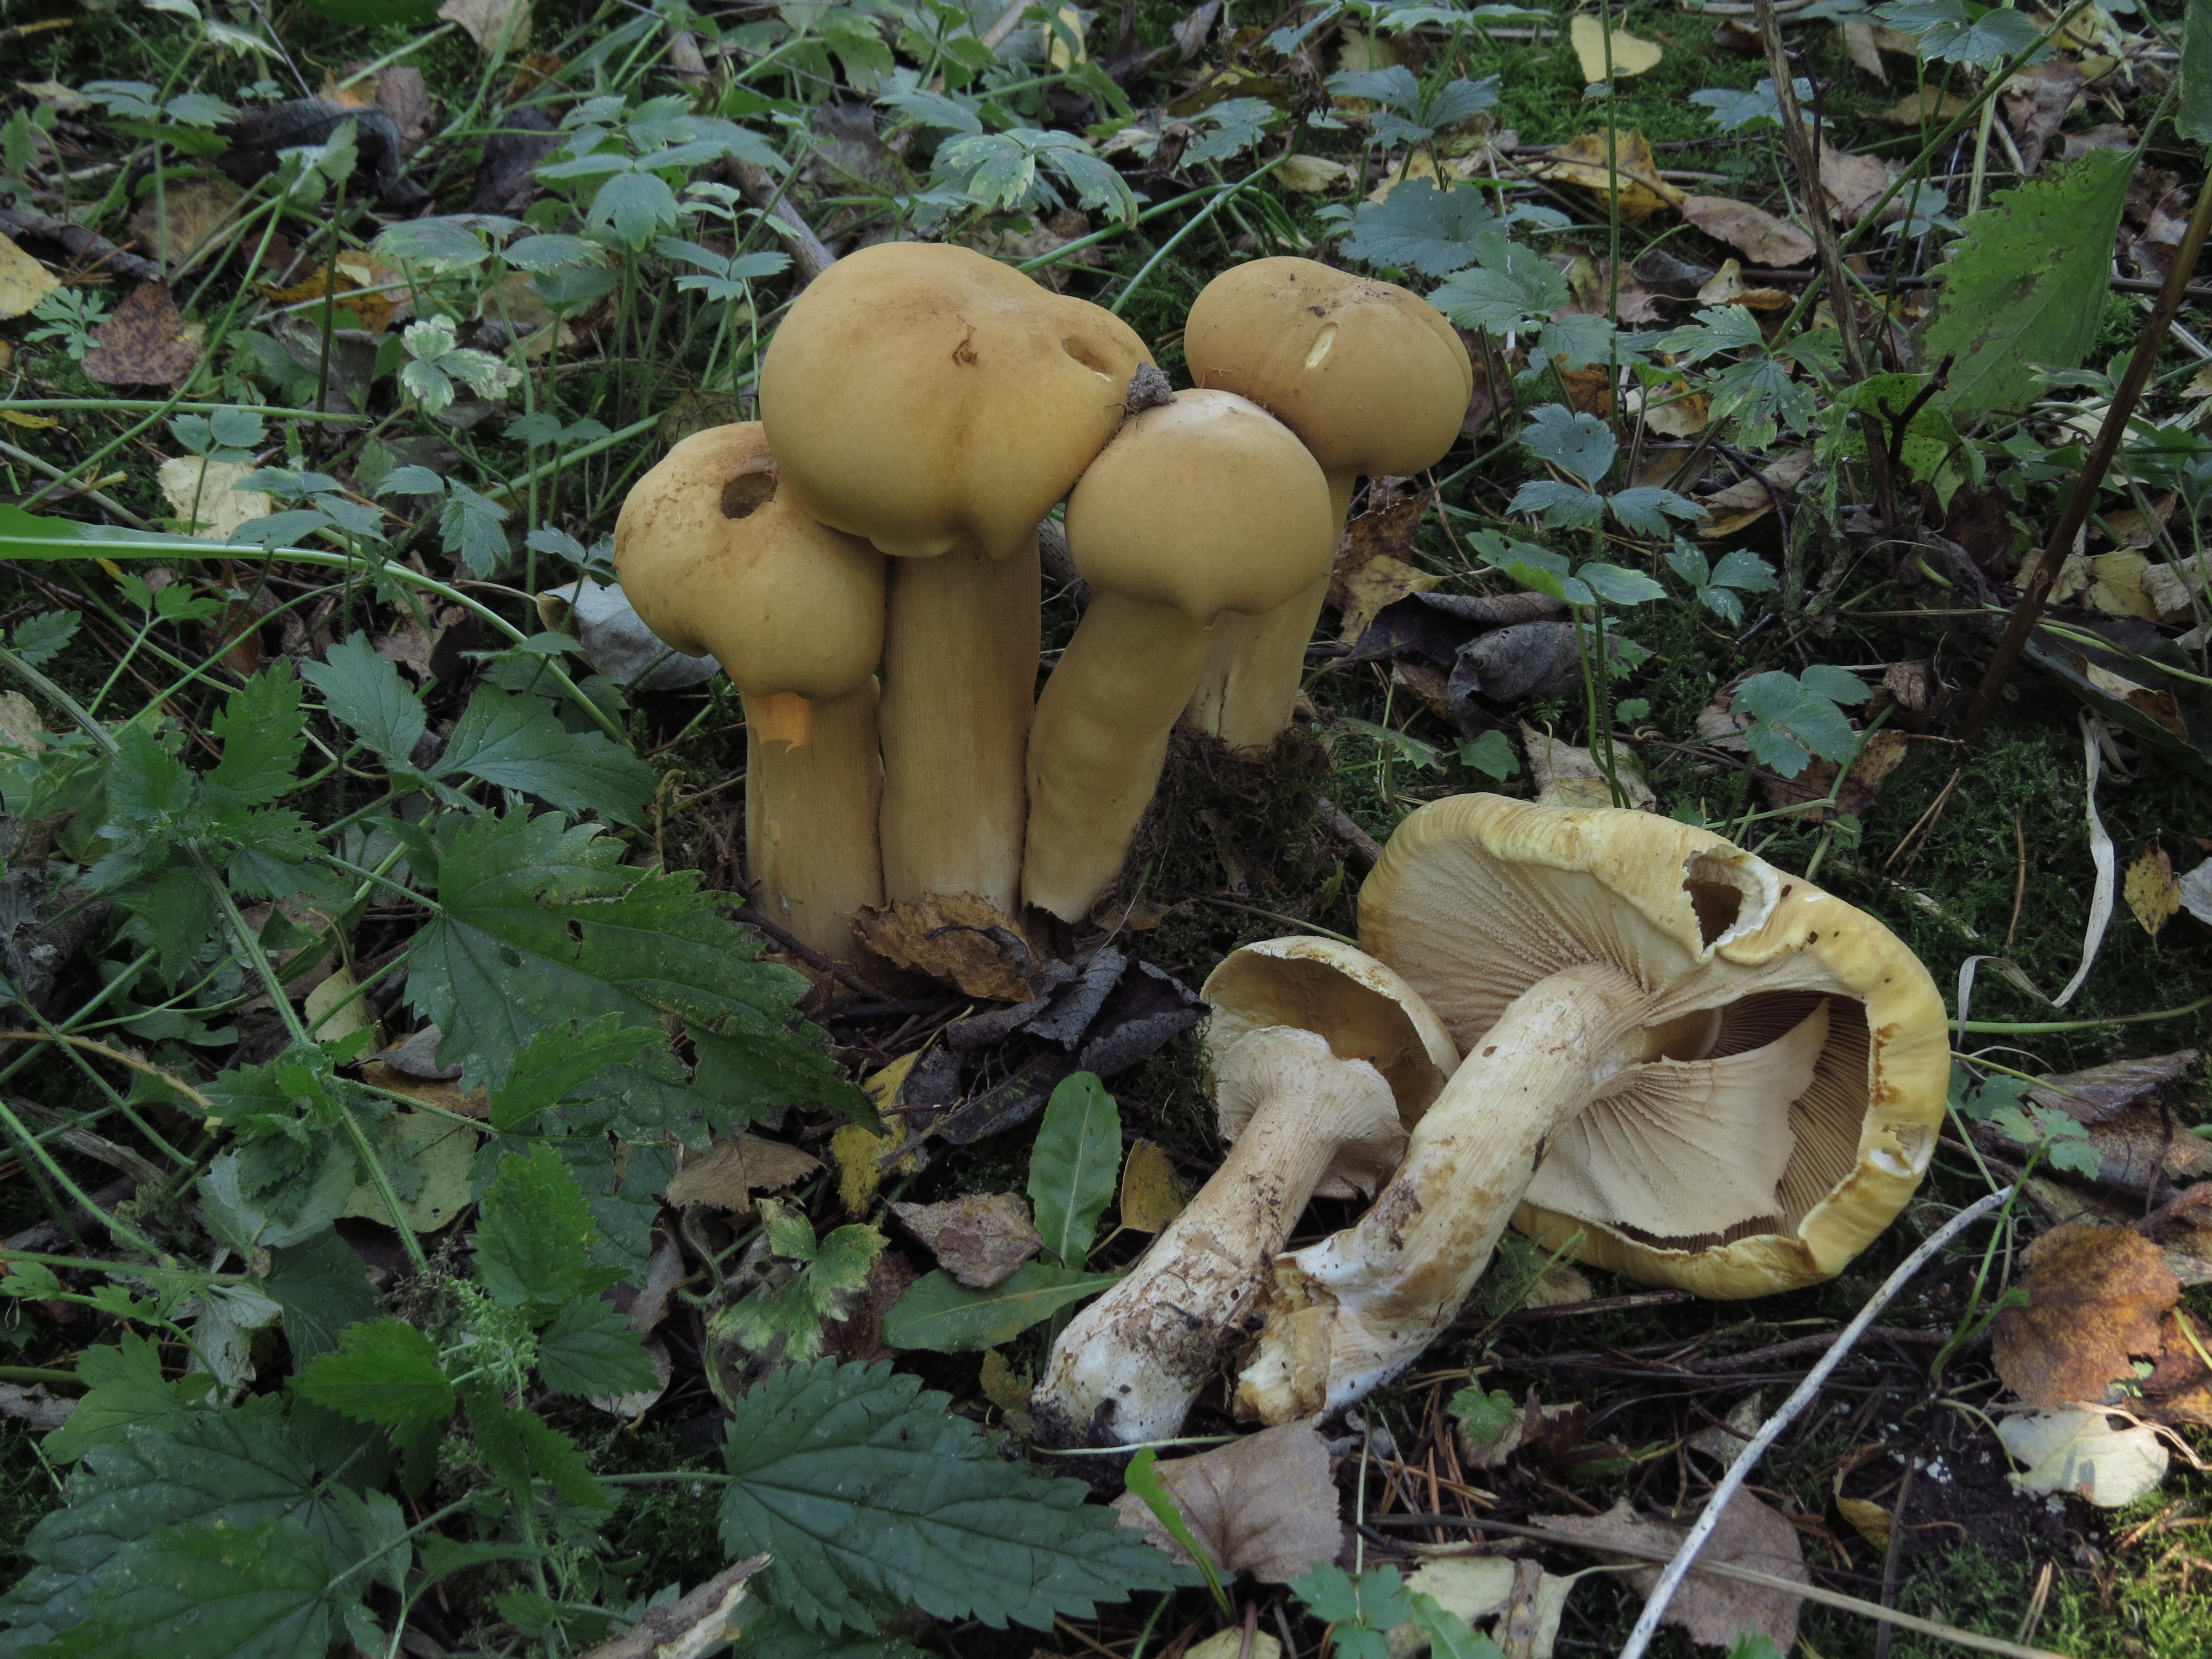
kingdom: Fungi
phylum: Basidiomycota
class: Agaricomycetes
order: Agaricales
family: Tricholomataceae
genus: Phaeolepiota
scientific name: Phaeolepiota aurea
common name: Golden bootleg
